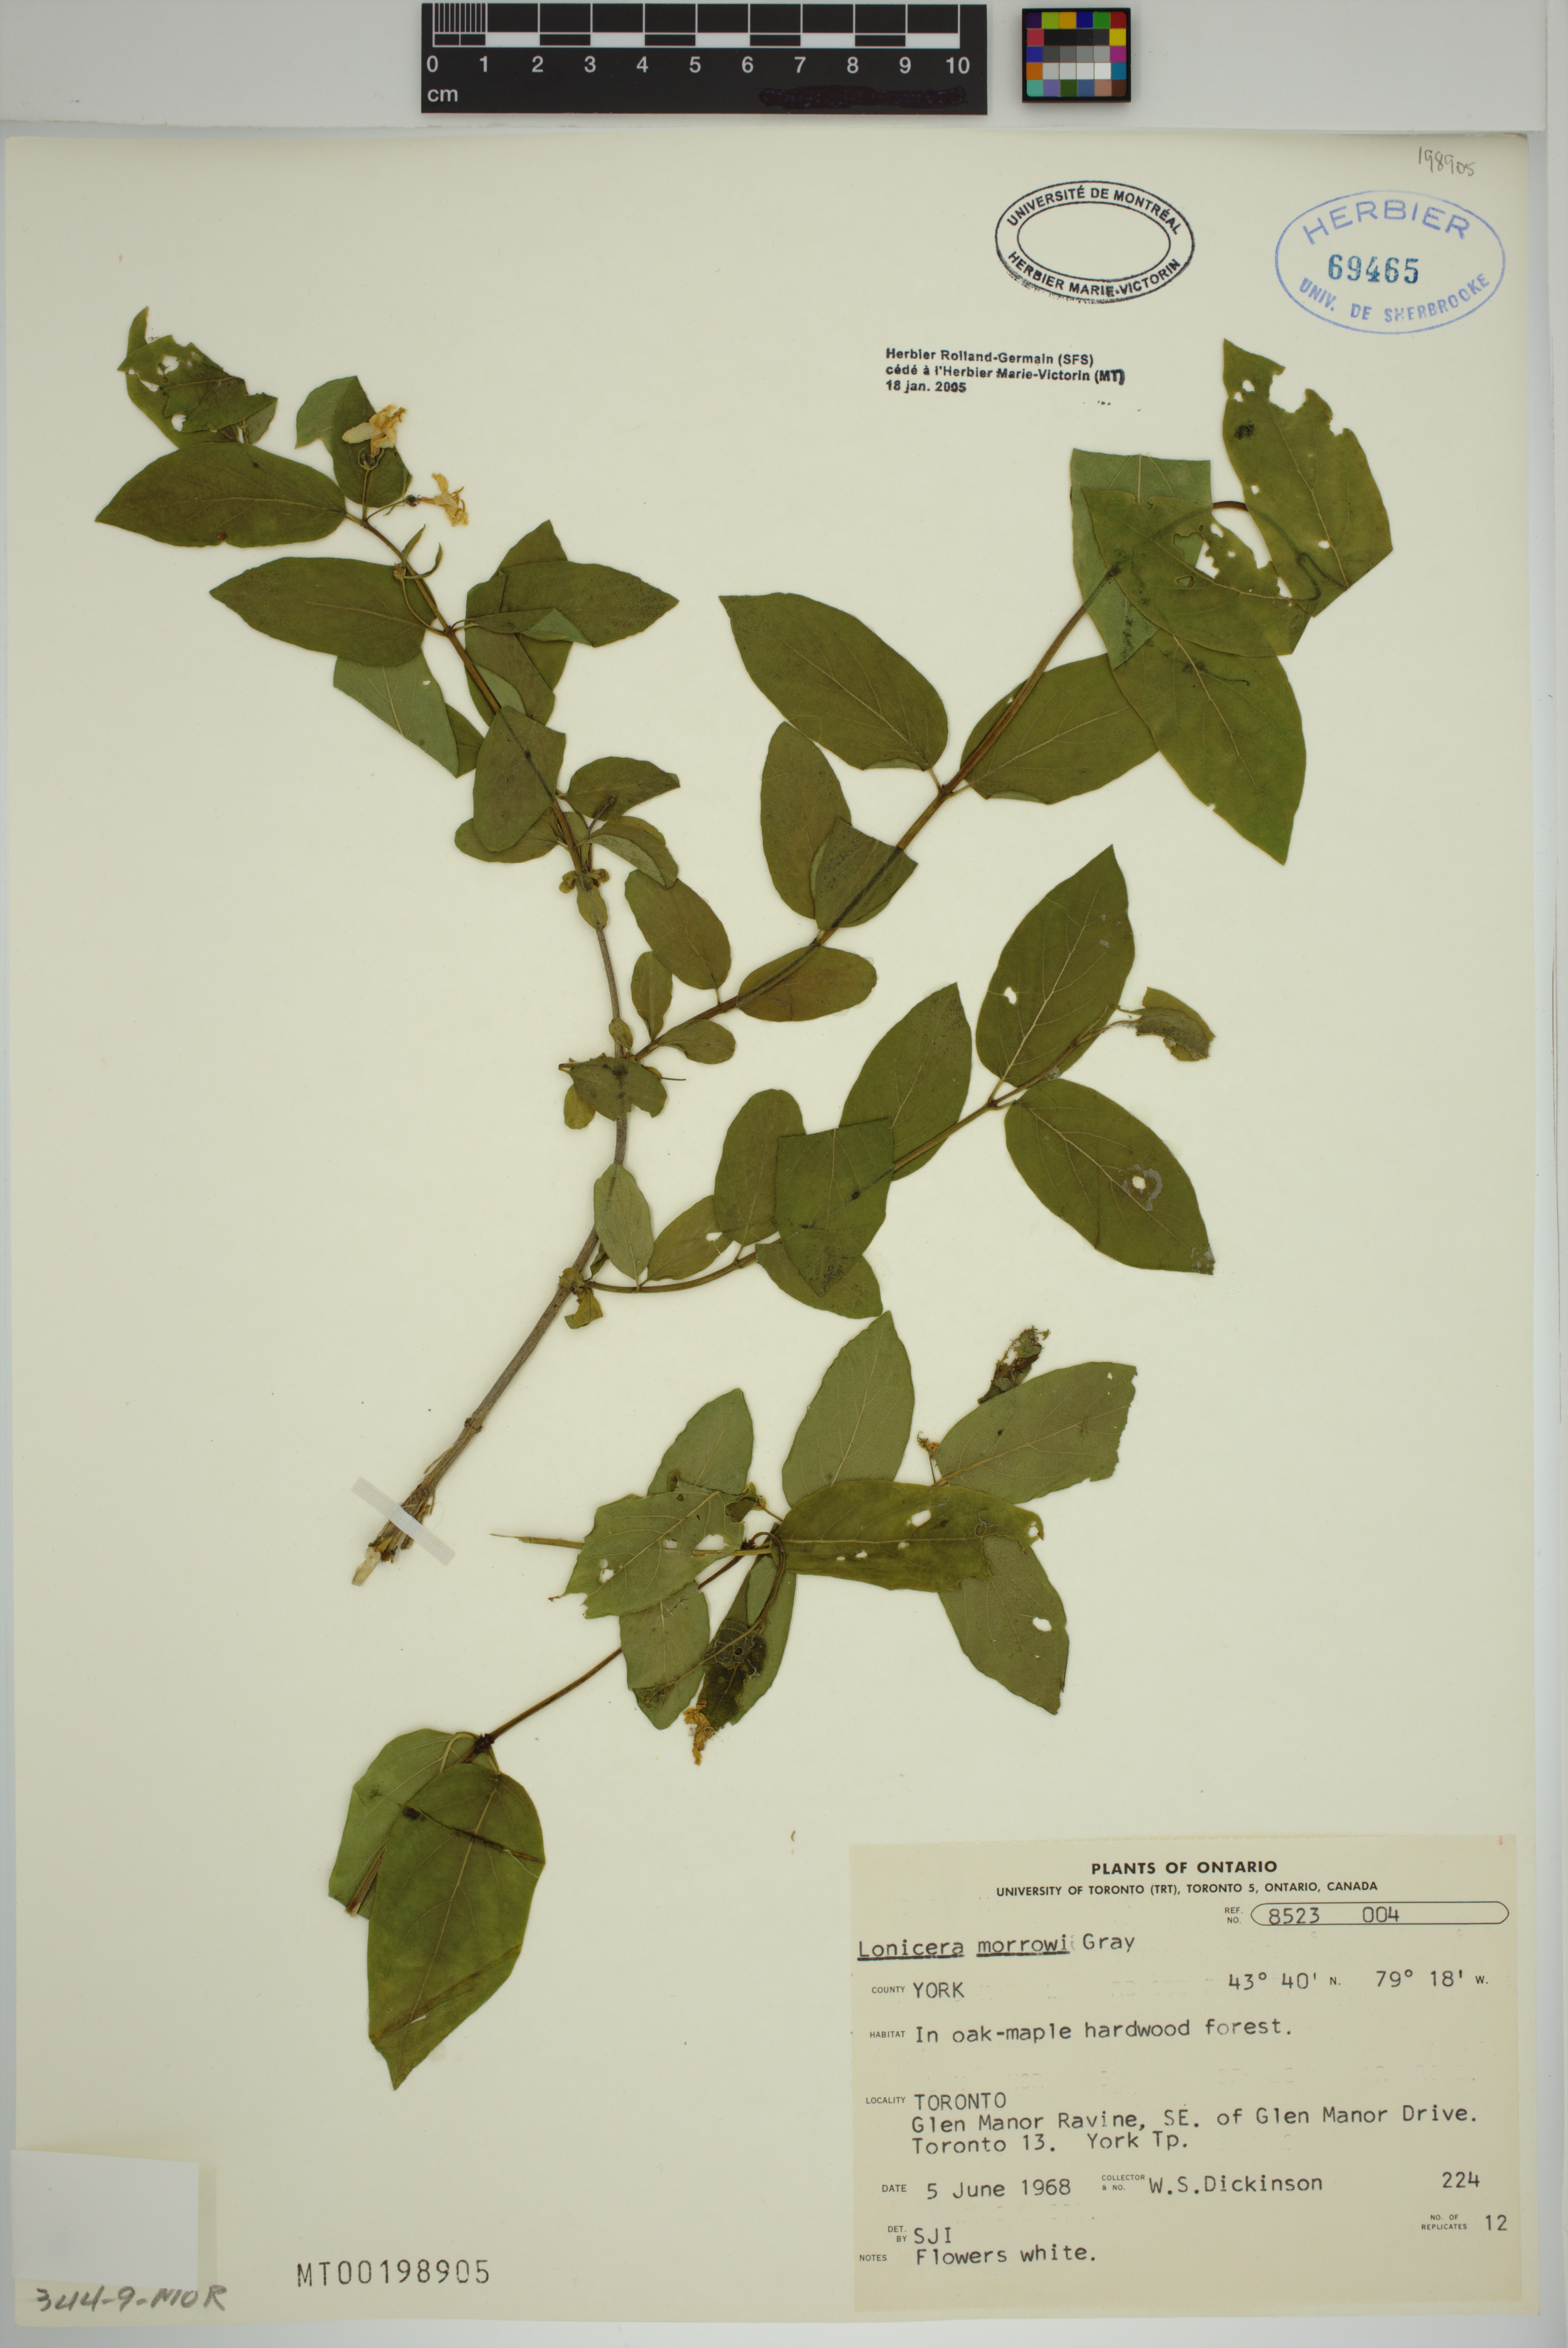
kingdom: Plantae
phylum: Tracheophyta
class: Magnoliopsida
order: Dipsacales
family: Caprifoliaceae
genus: Lonicera
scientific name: Lonicera morrowii
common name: Morrow's honeysuckle
